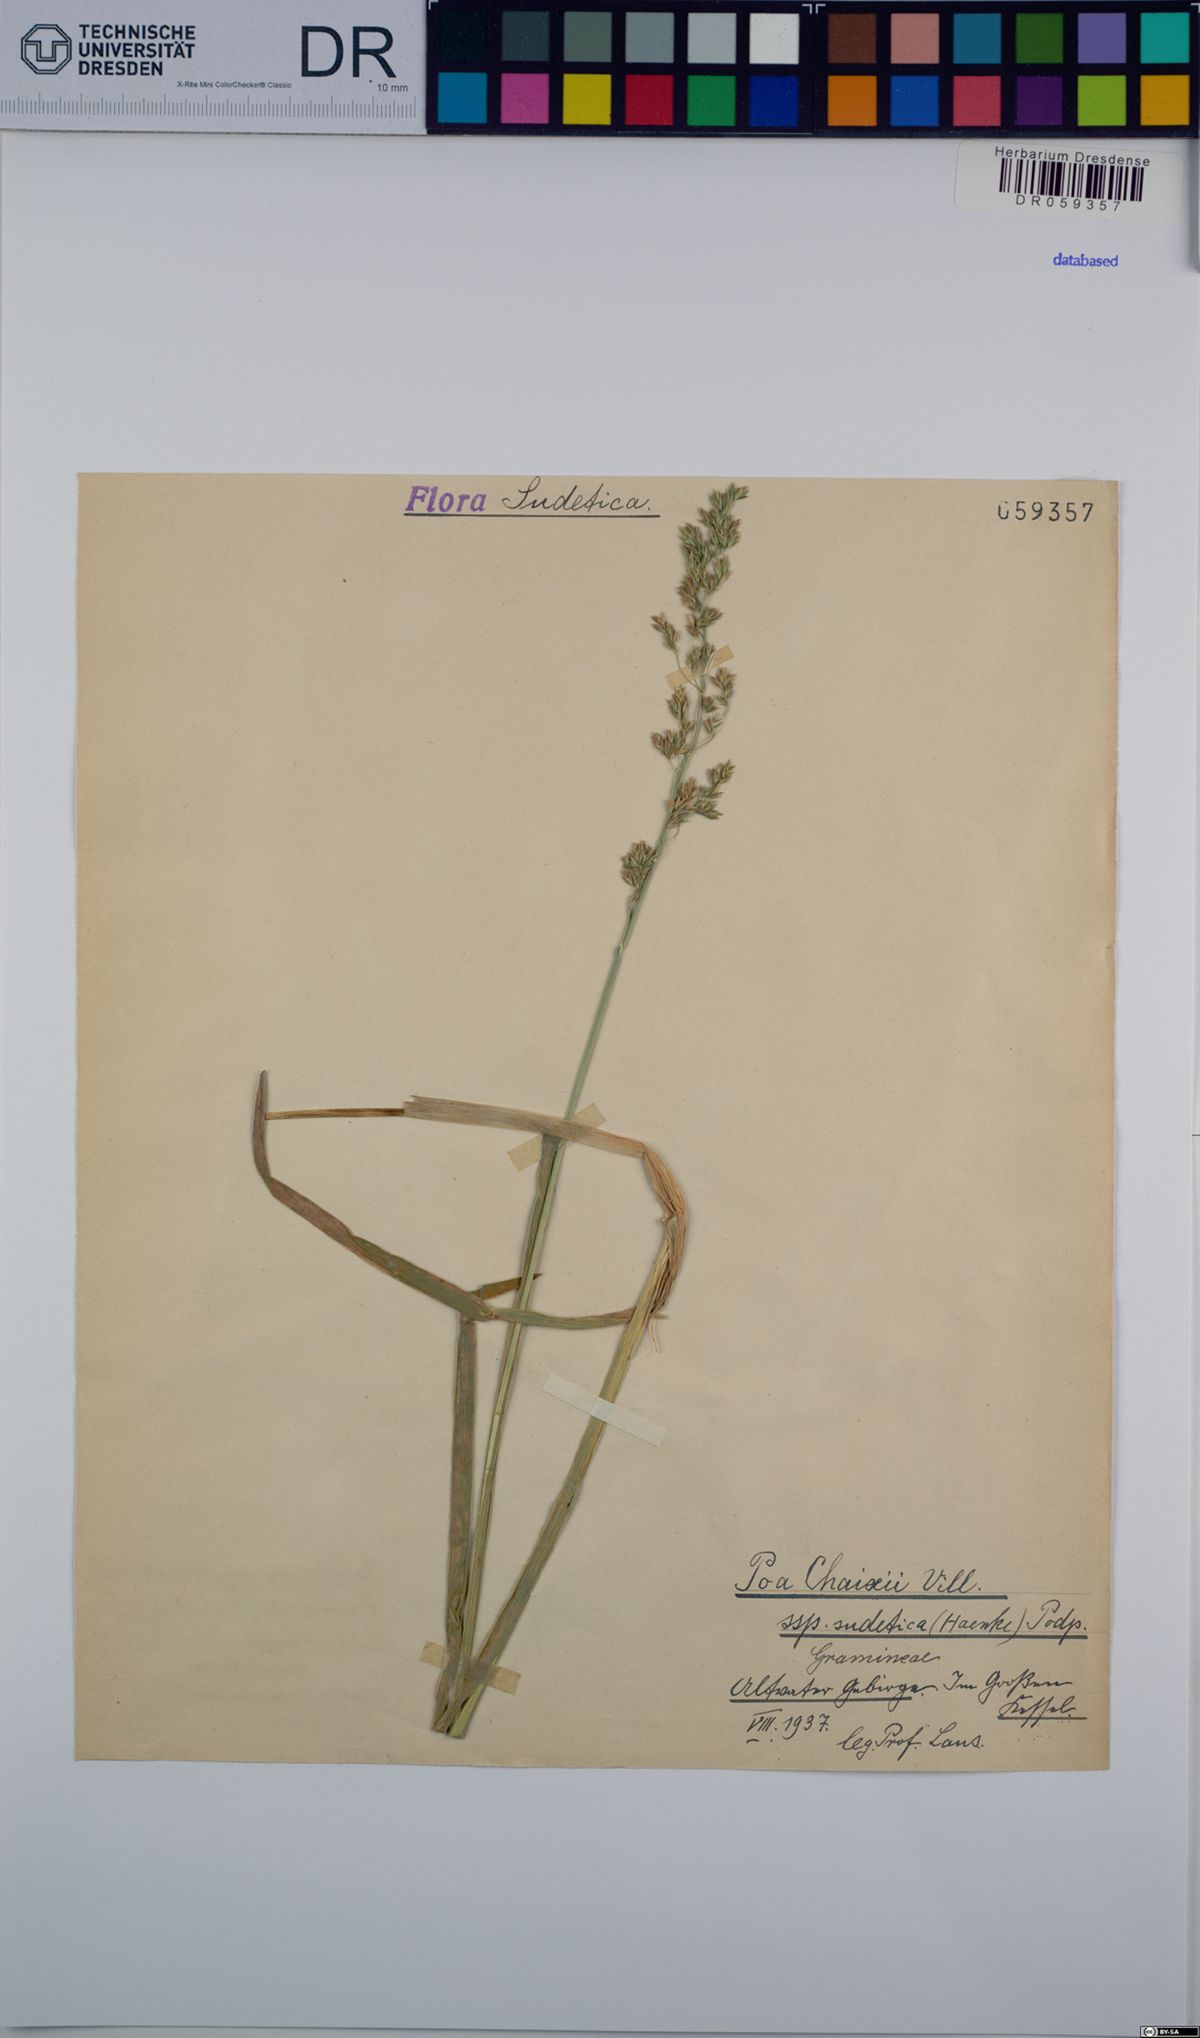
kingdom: Plantae
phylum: Tracheophyta
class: Liliopsida
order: Poales
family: Poaceae
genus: Poa
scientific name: Poa chaixii
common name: Broad-leaved meadow-grass
